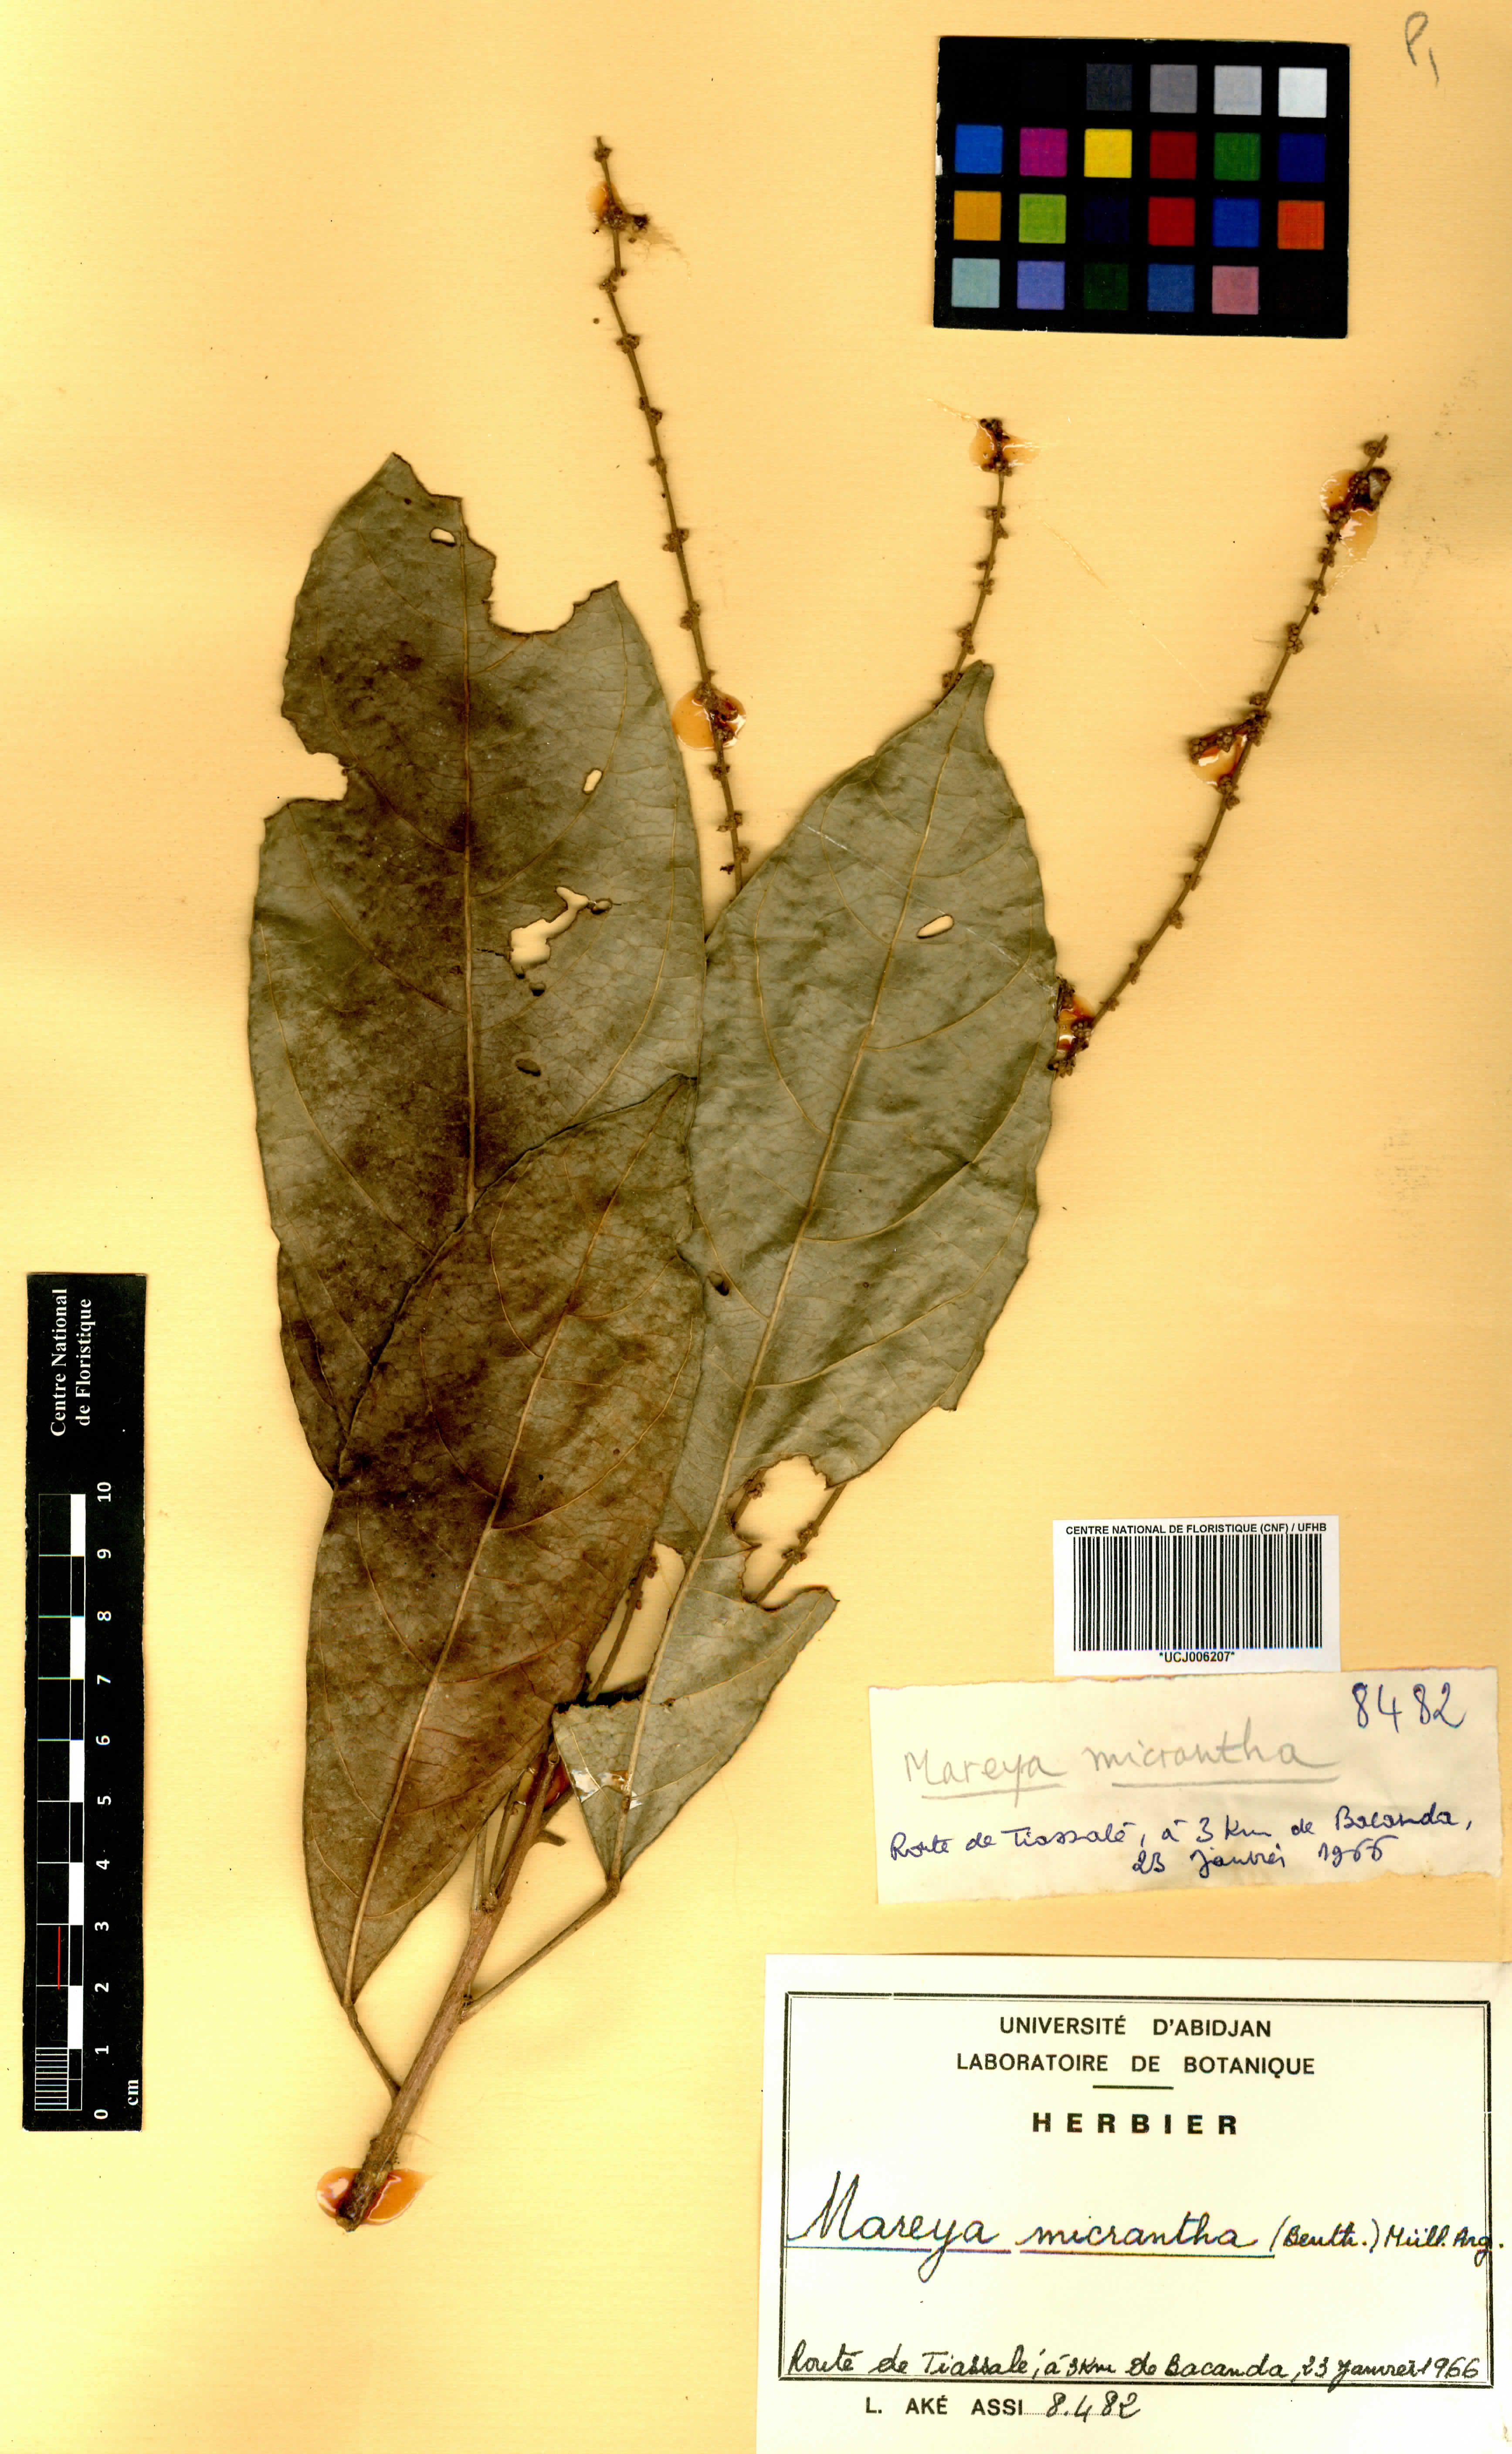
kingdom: Plantae
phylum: Tracheophyta
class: Magnoliopsida
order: Malpighiales
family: Euphorbiaceae
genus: Mareya
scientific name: Mareya micrantha
